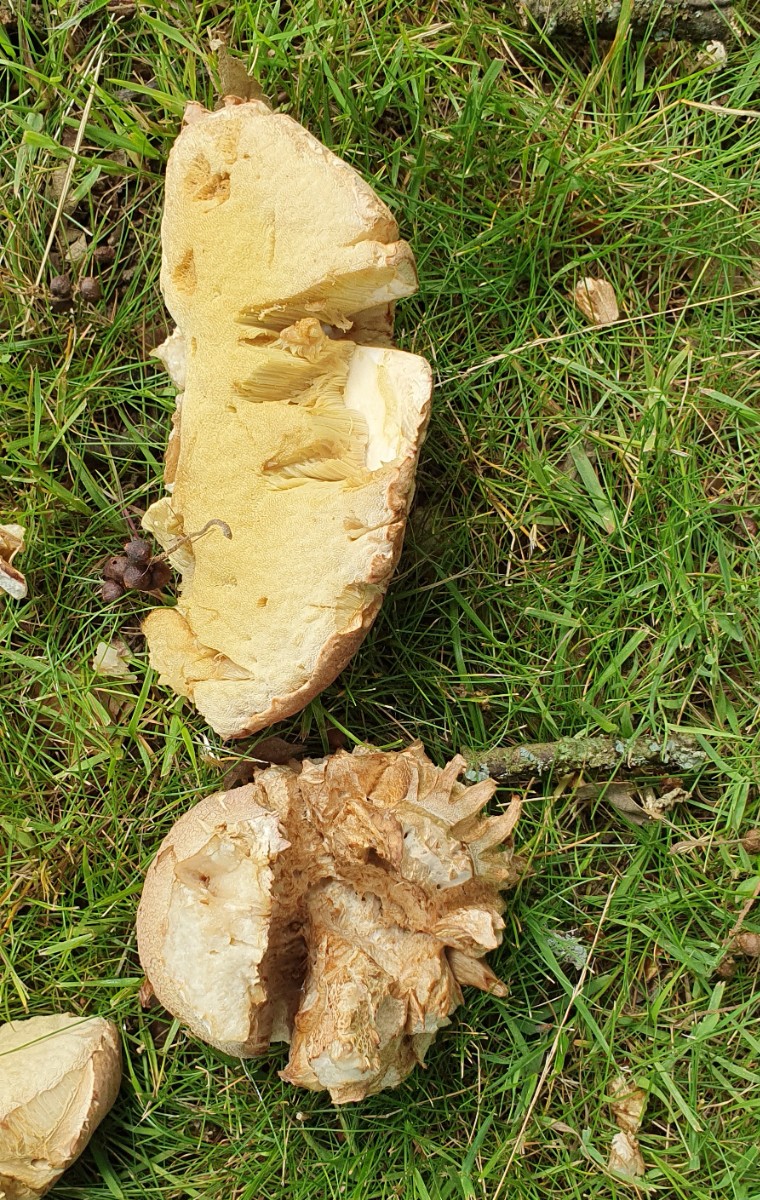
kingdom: Fungi
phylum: Basidiomycota
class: Agaricomycetes
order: Boletales
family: Boletaceae
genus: Boletus
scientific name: Boletus reticulatus
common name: sommer-rørhat
